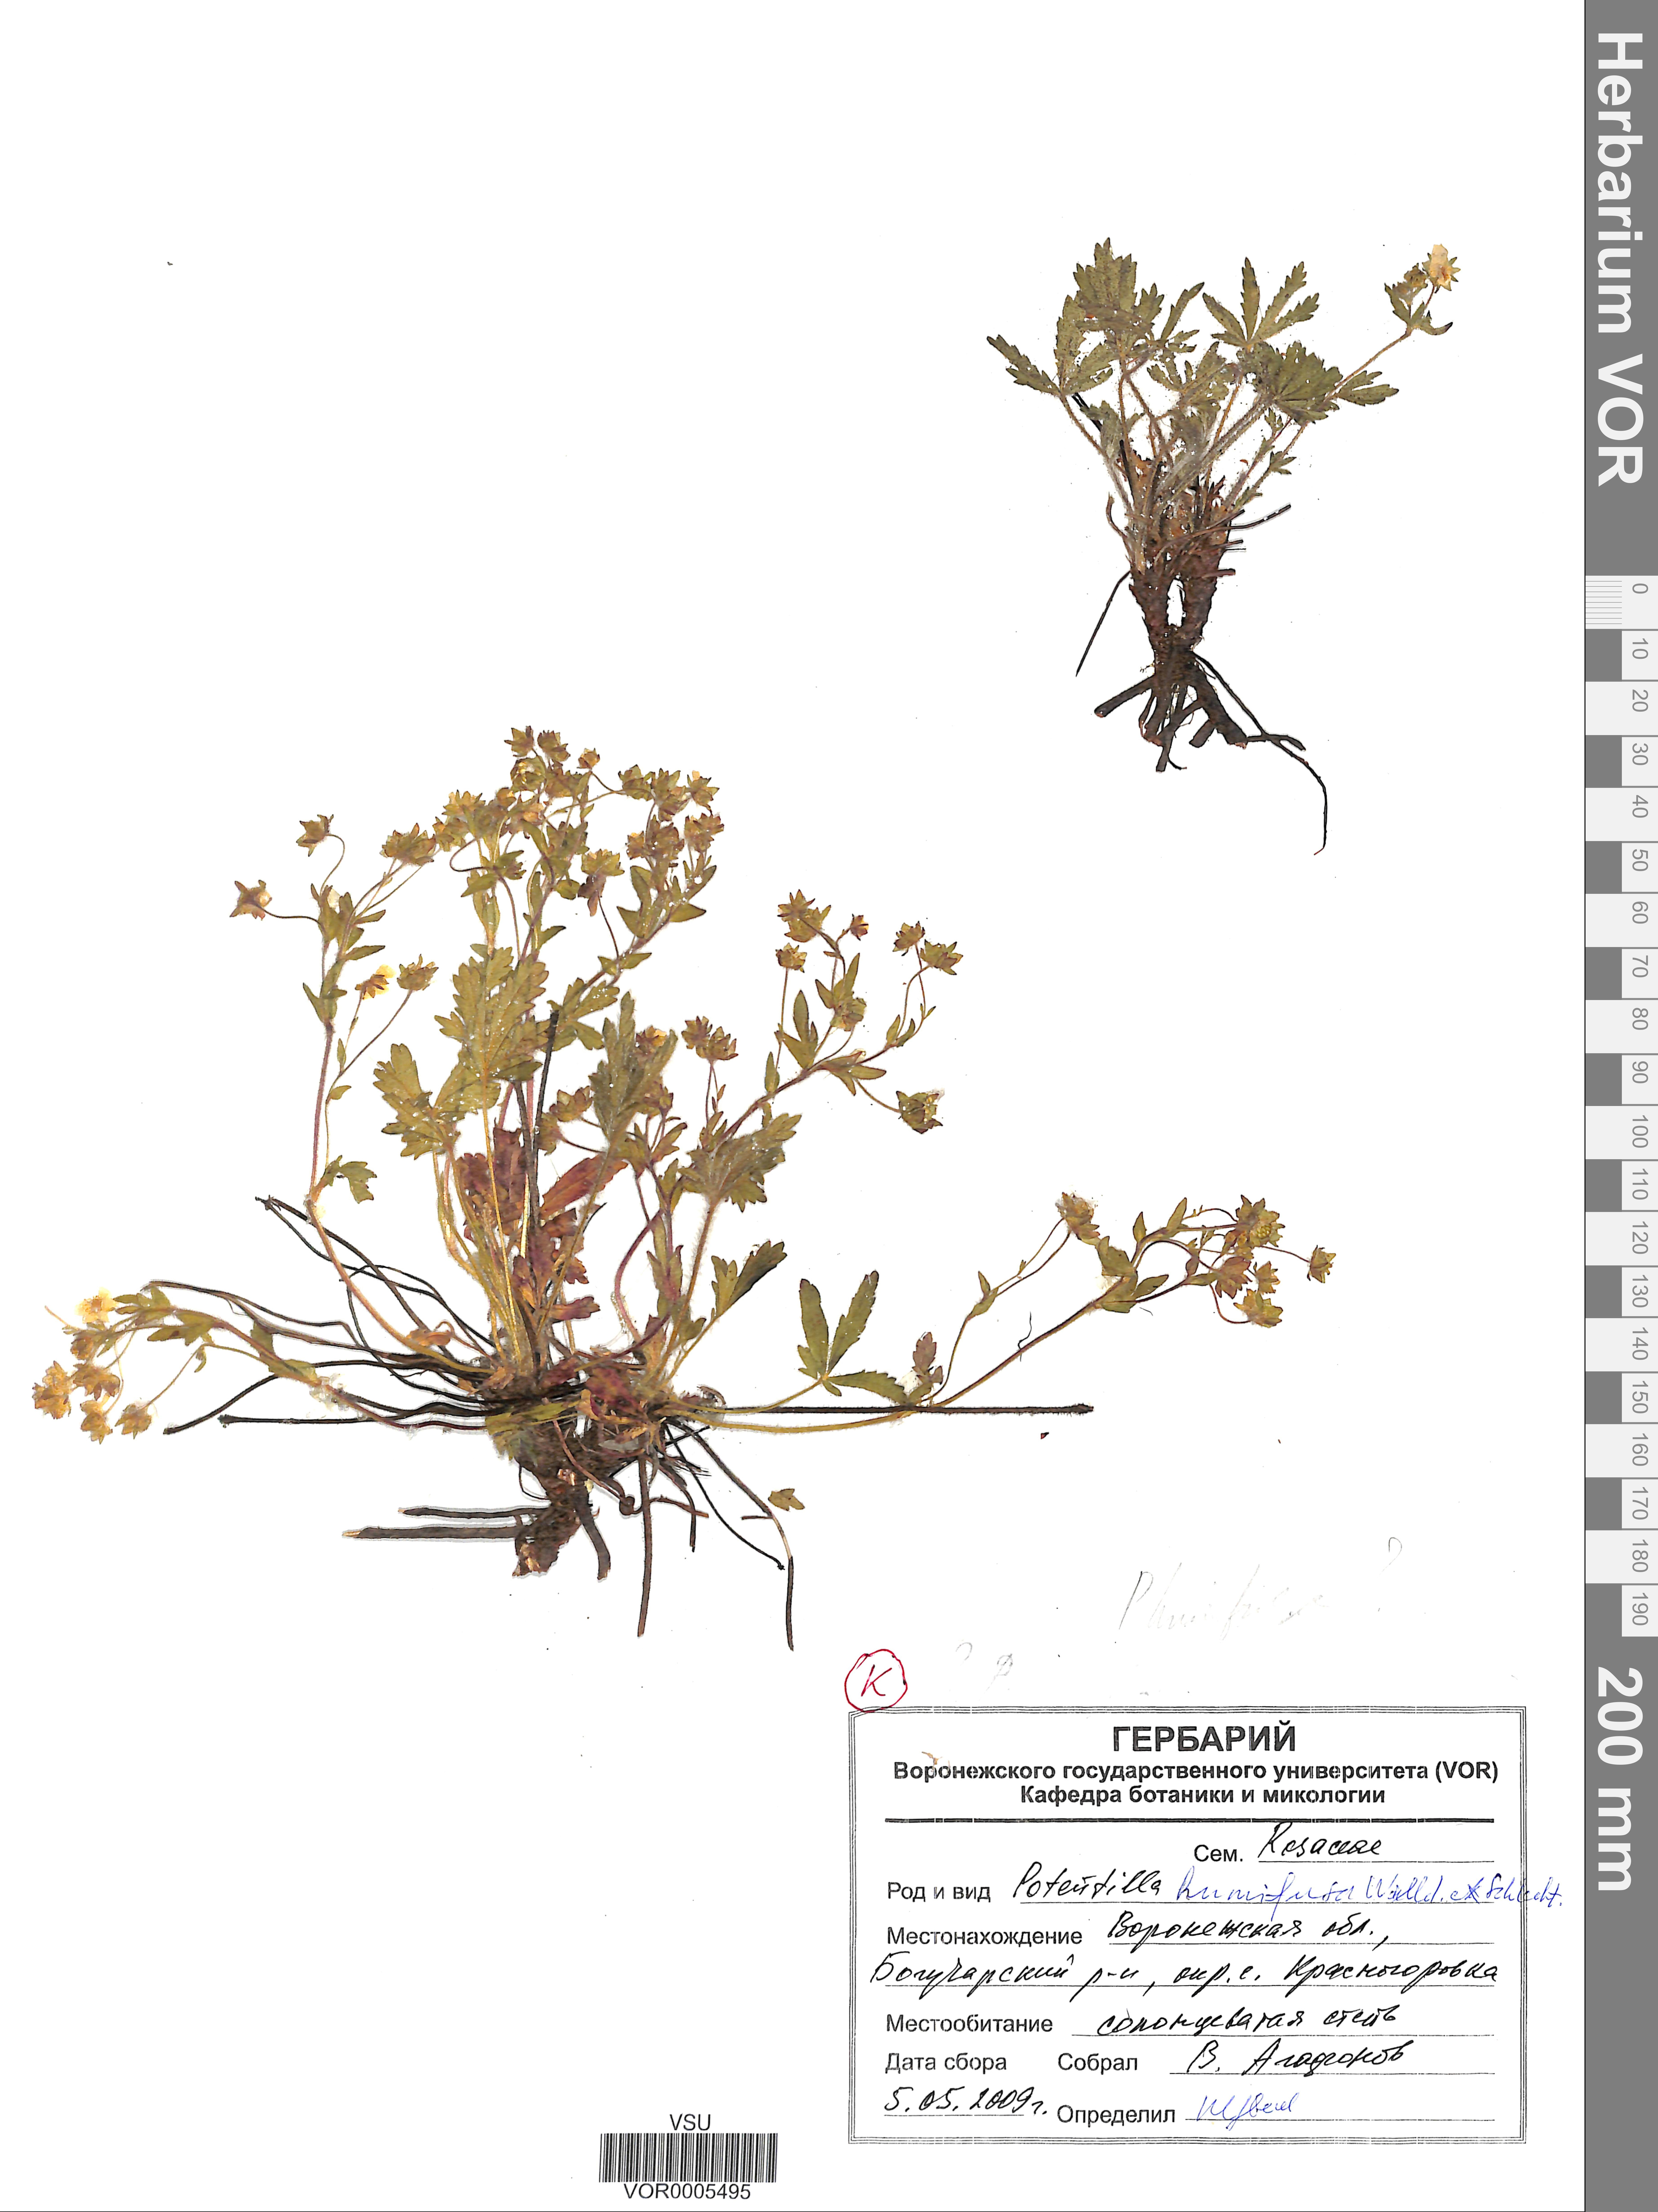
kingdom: Plantae
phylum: Tracheophyta
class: Magnoliopsida
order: Rosales
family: Rosaceae
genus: Potentilla
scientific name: Potentilla humifusa
